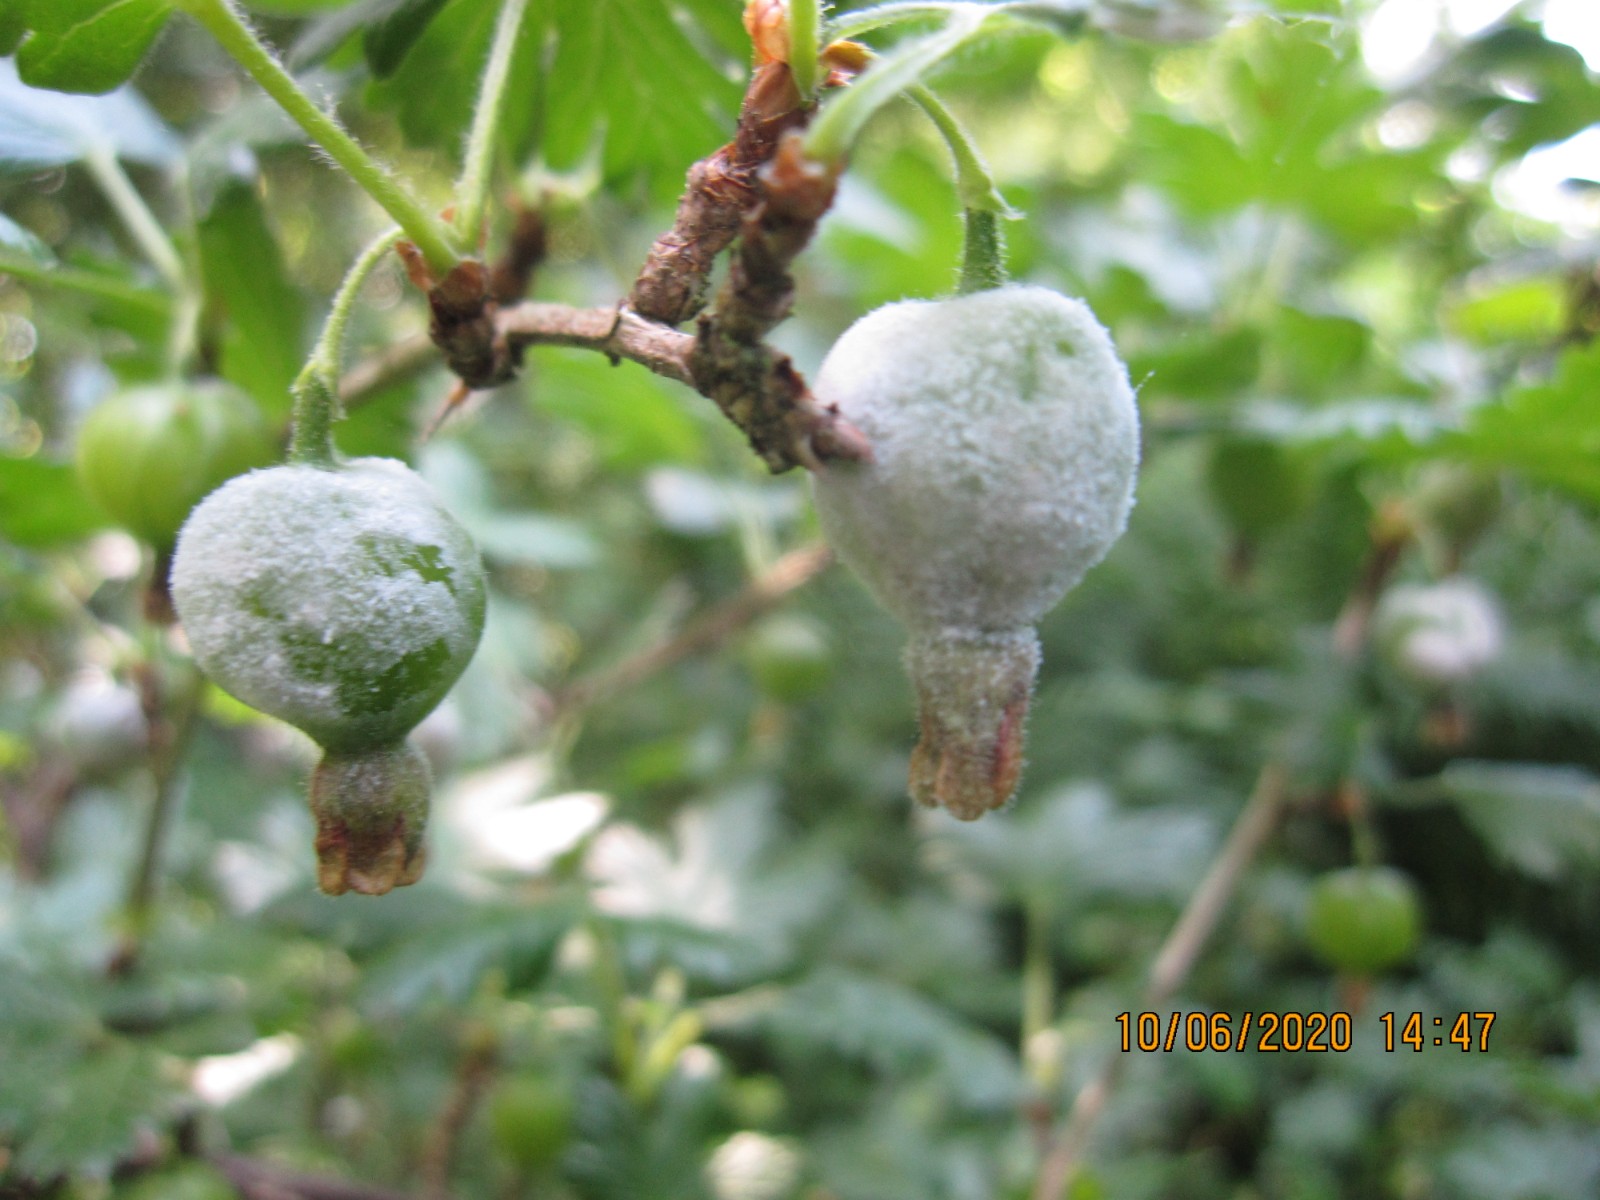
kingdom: Fungi
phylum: Ascomycota
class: Leotiomycetes
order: Helotiales
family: Erysiphaceae
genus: Podosphaera
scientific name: Podosphaera mors-uvae
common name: American gooseberry mildew
